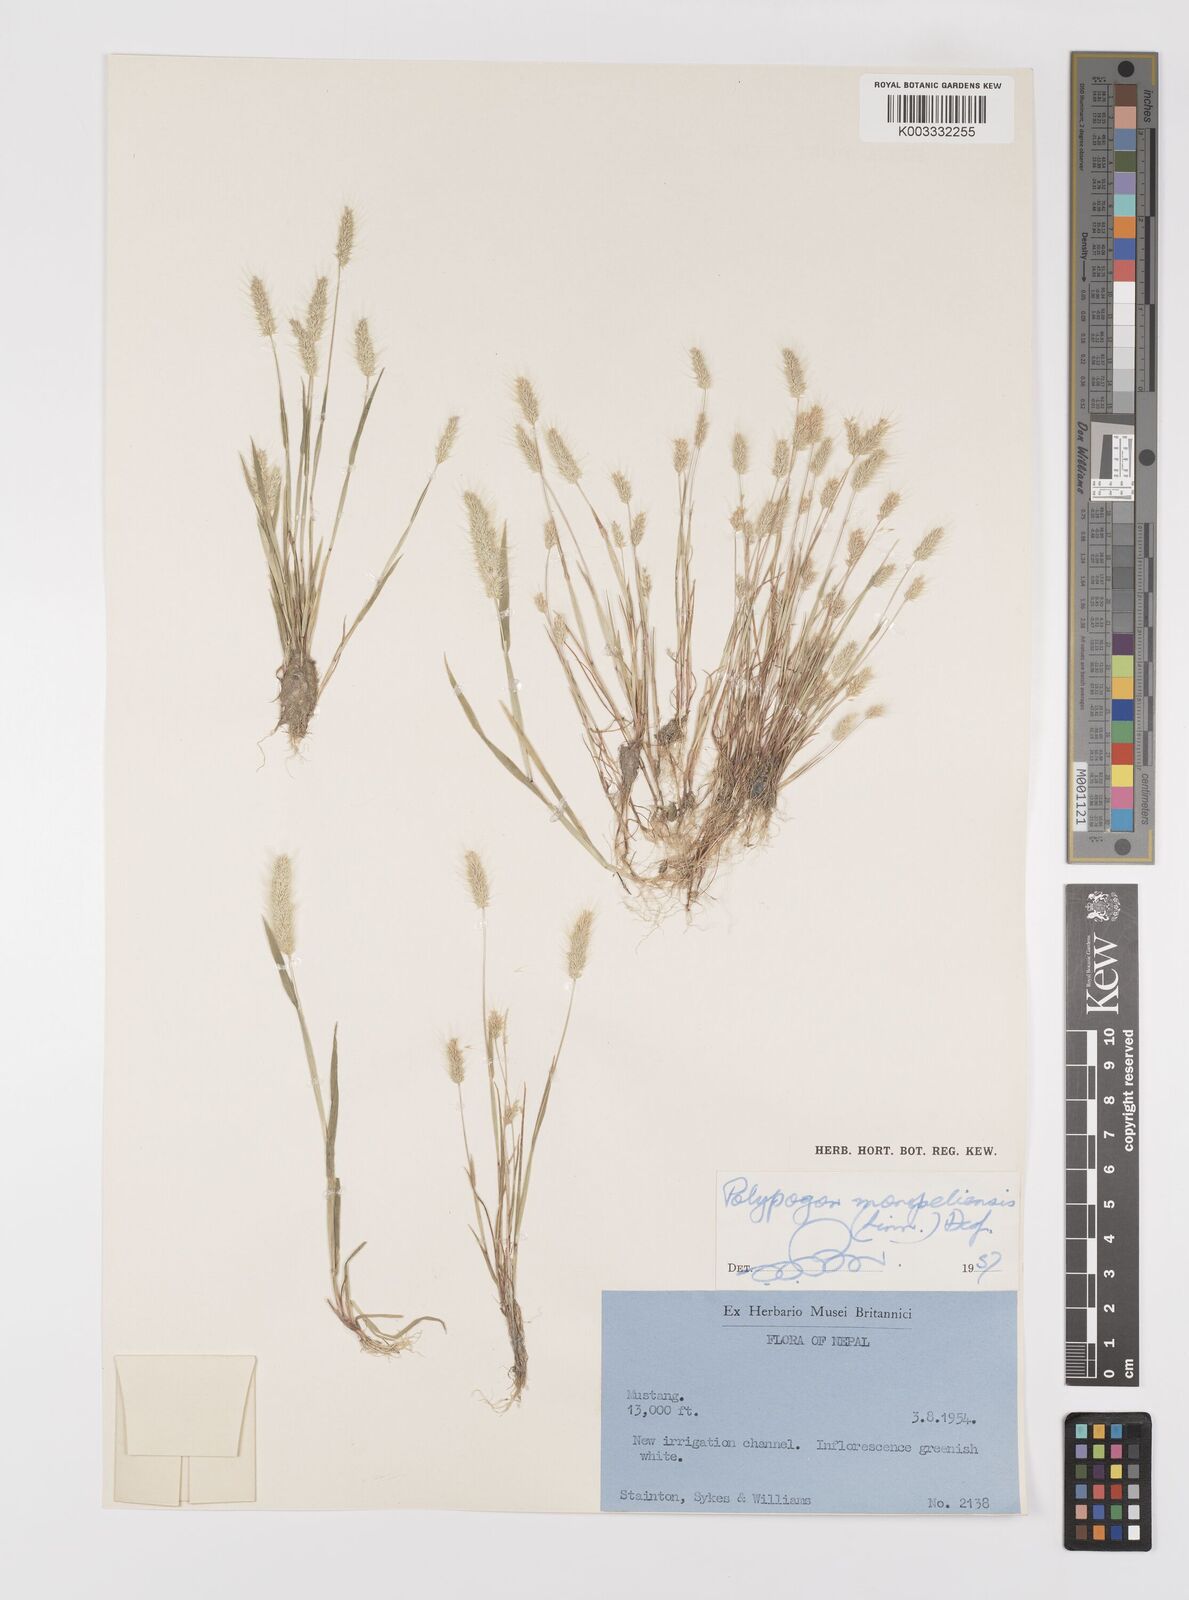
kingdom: Plantae
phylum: Tracheophyta
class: Liliopsida
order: Poales
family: Poaceae
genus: Polypogon
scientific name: Polypogon monspeliensis
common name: Annual rabbitsfoot grass
